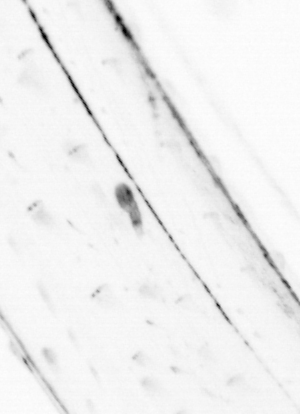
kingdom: Animalia
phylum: Chaetognatha
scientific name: Chaetognatha
